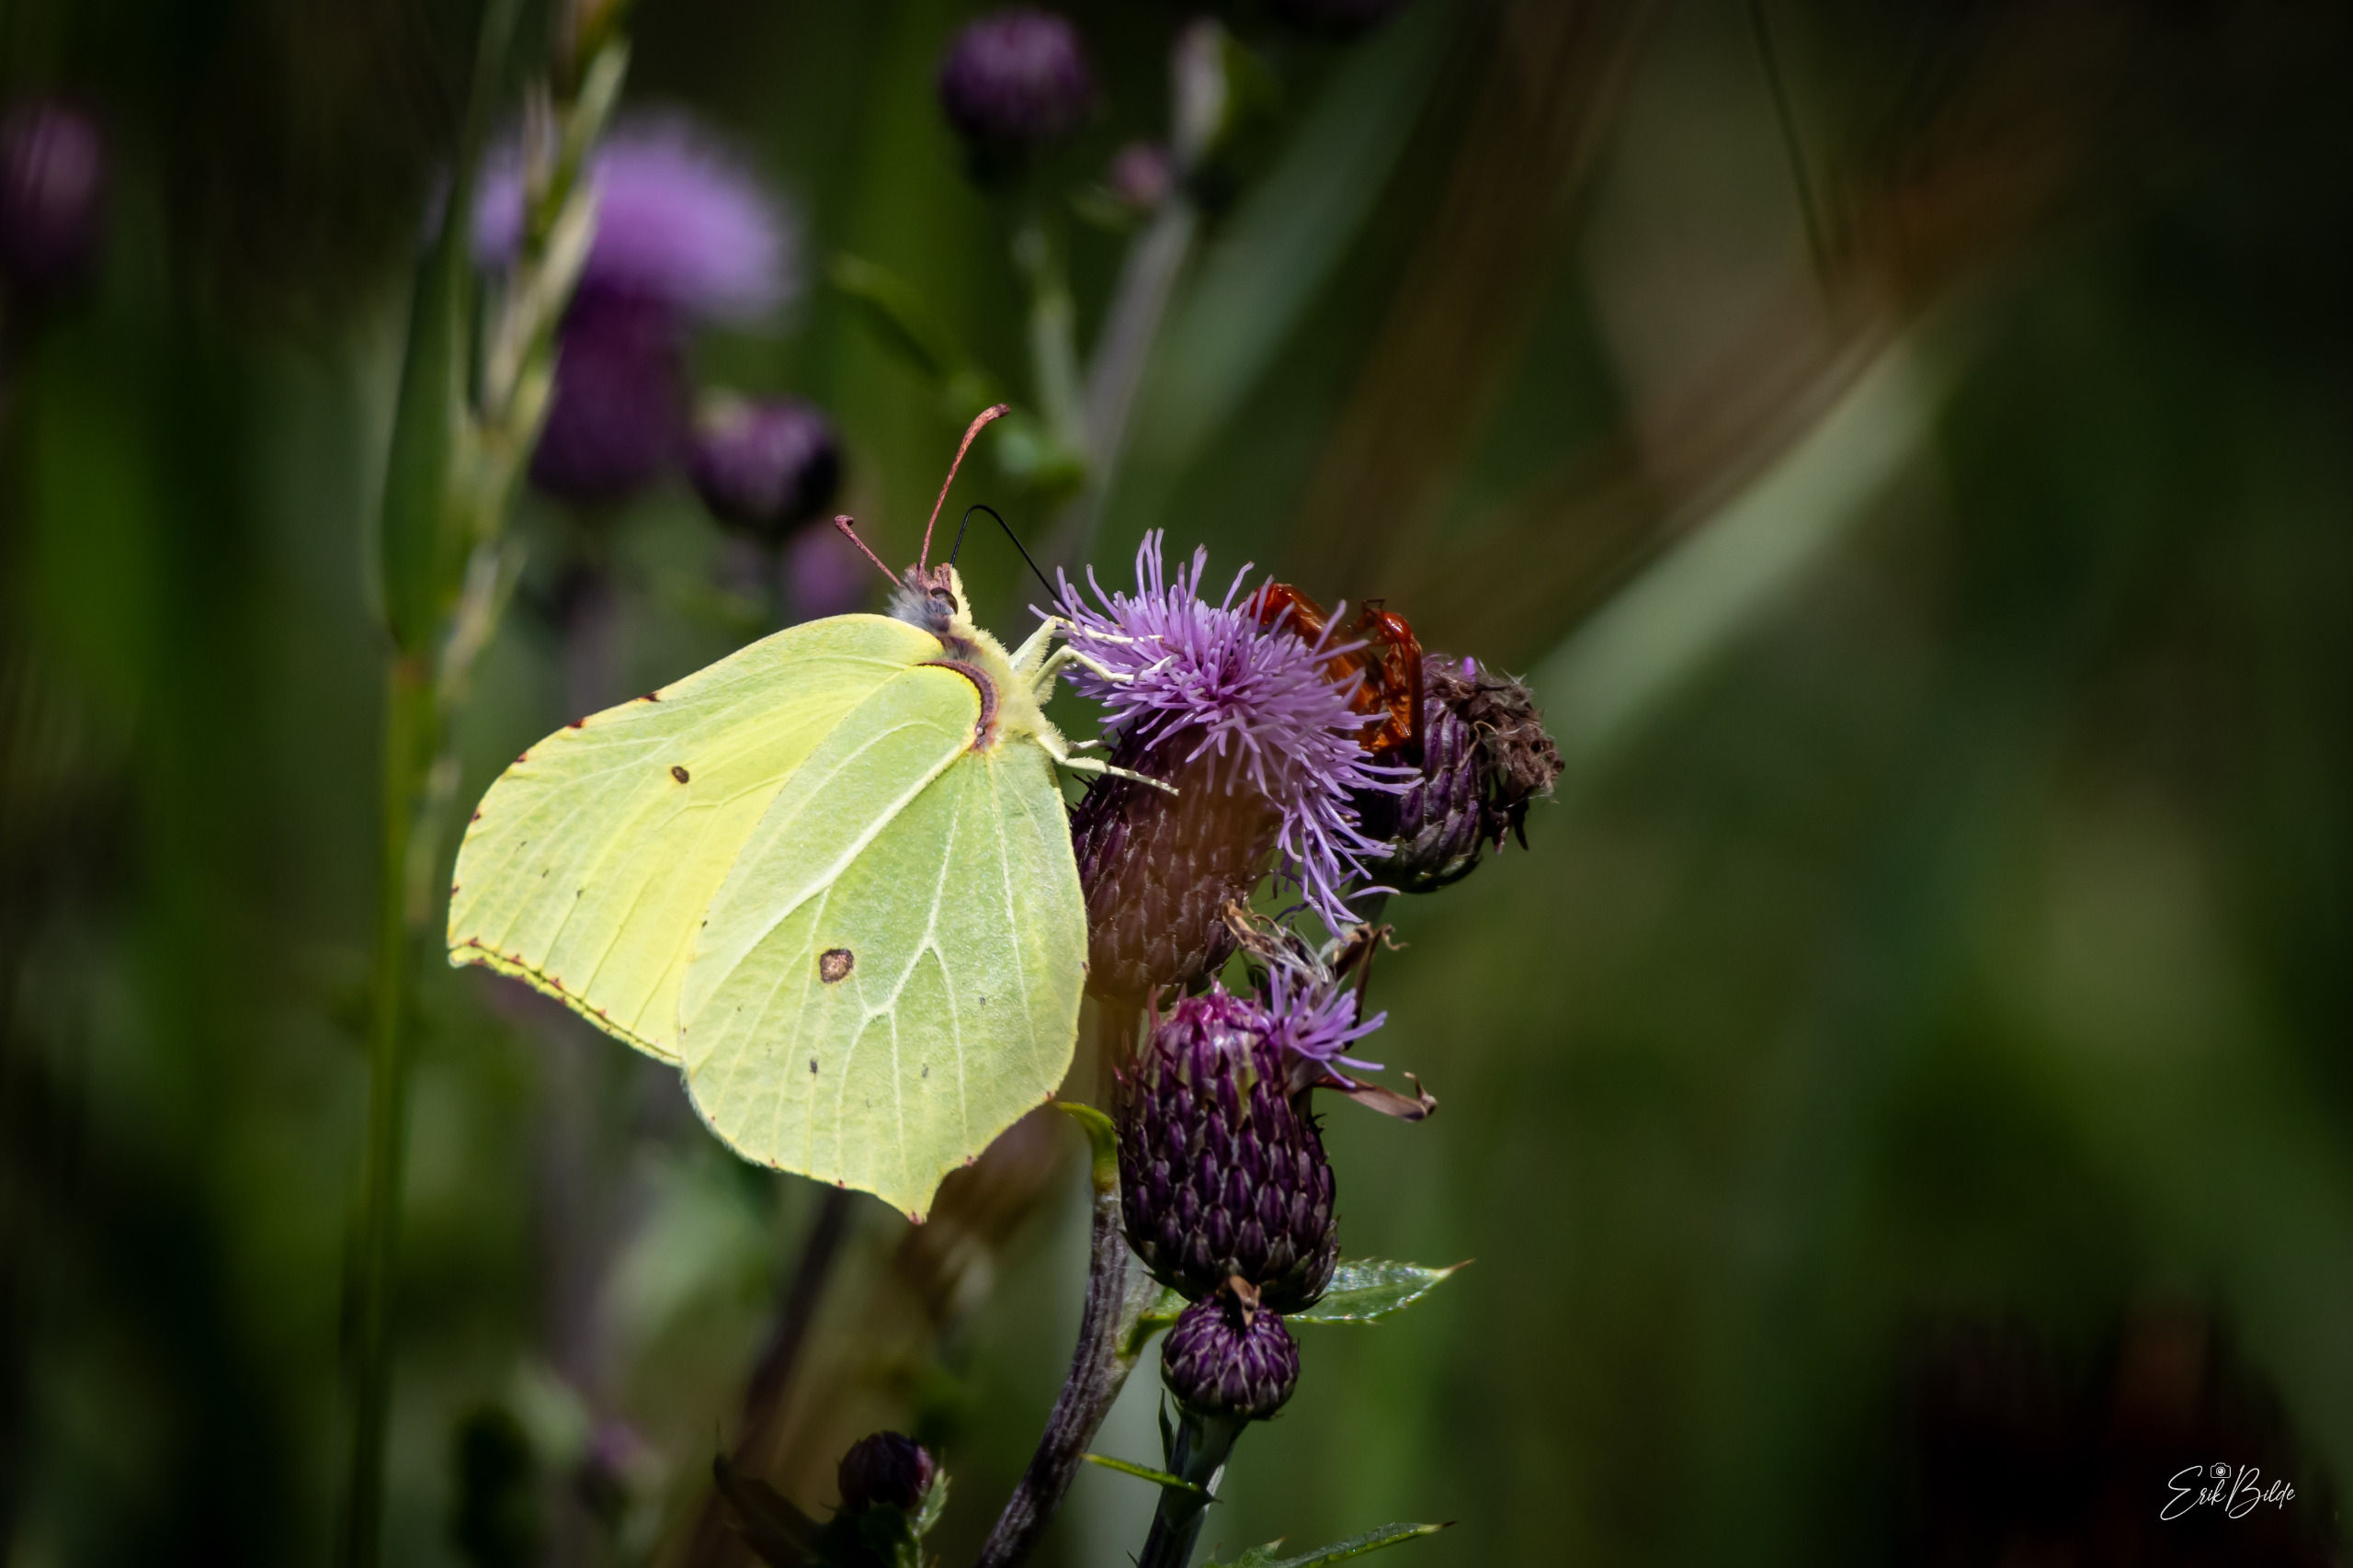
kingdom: Animalia
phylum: Arthropoda
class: Insecta
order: Lepidoptera
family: Pieridae
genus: Gonepteryx
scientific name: Gonepteryx rhamni
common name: Citronsommerfugl
